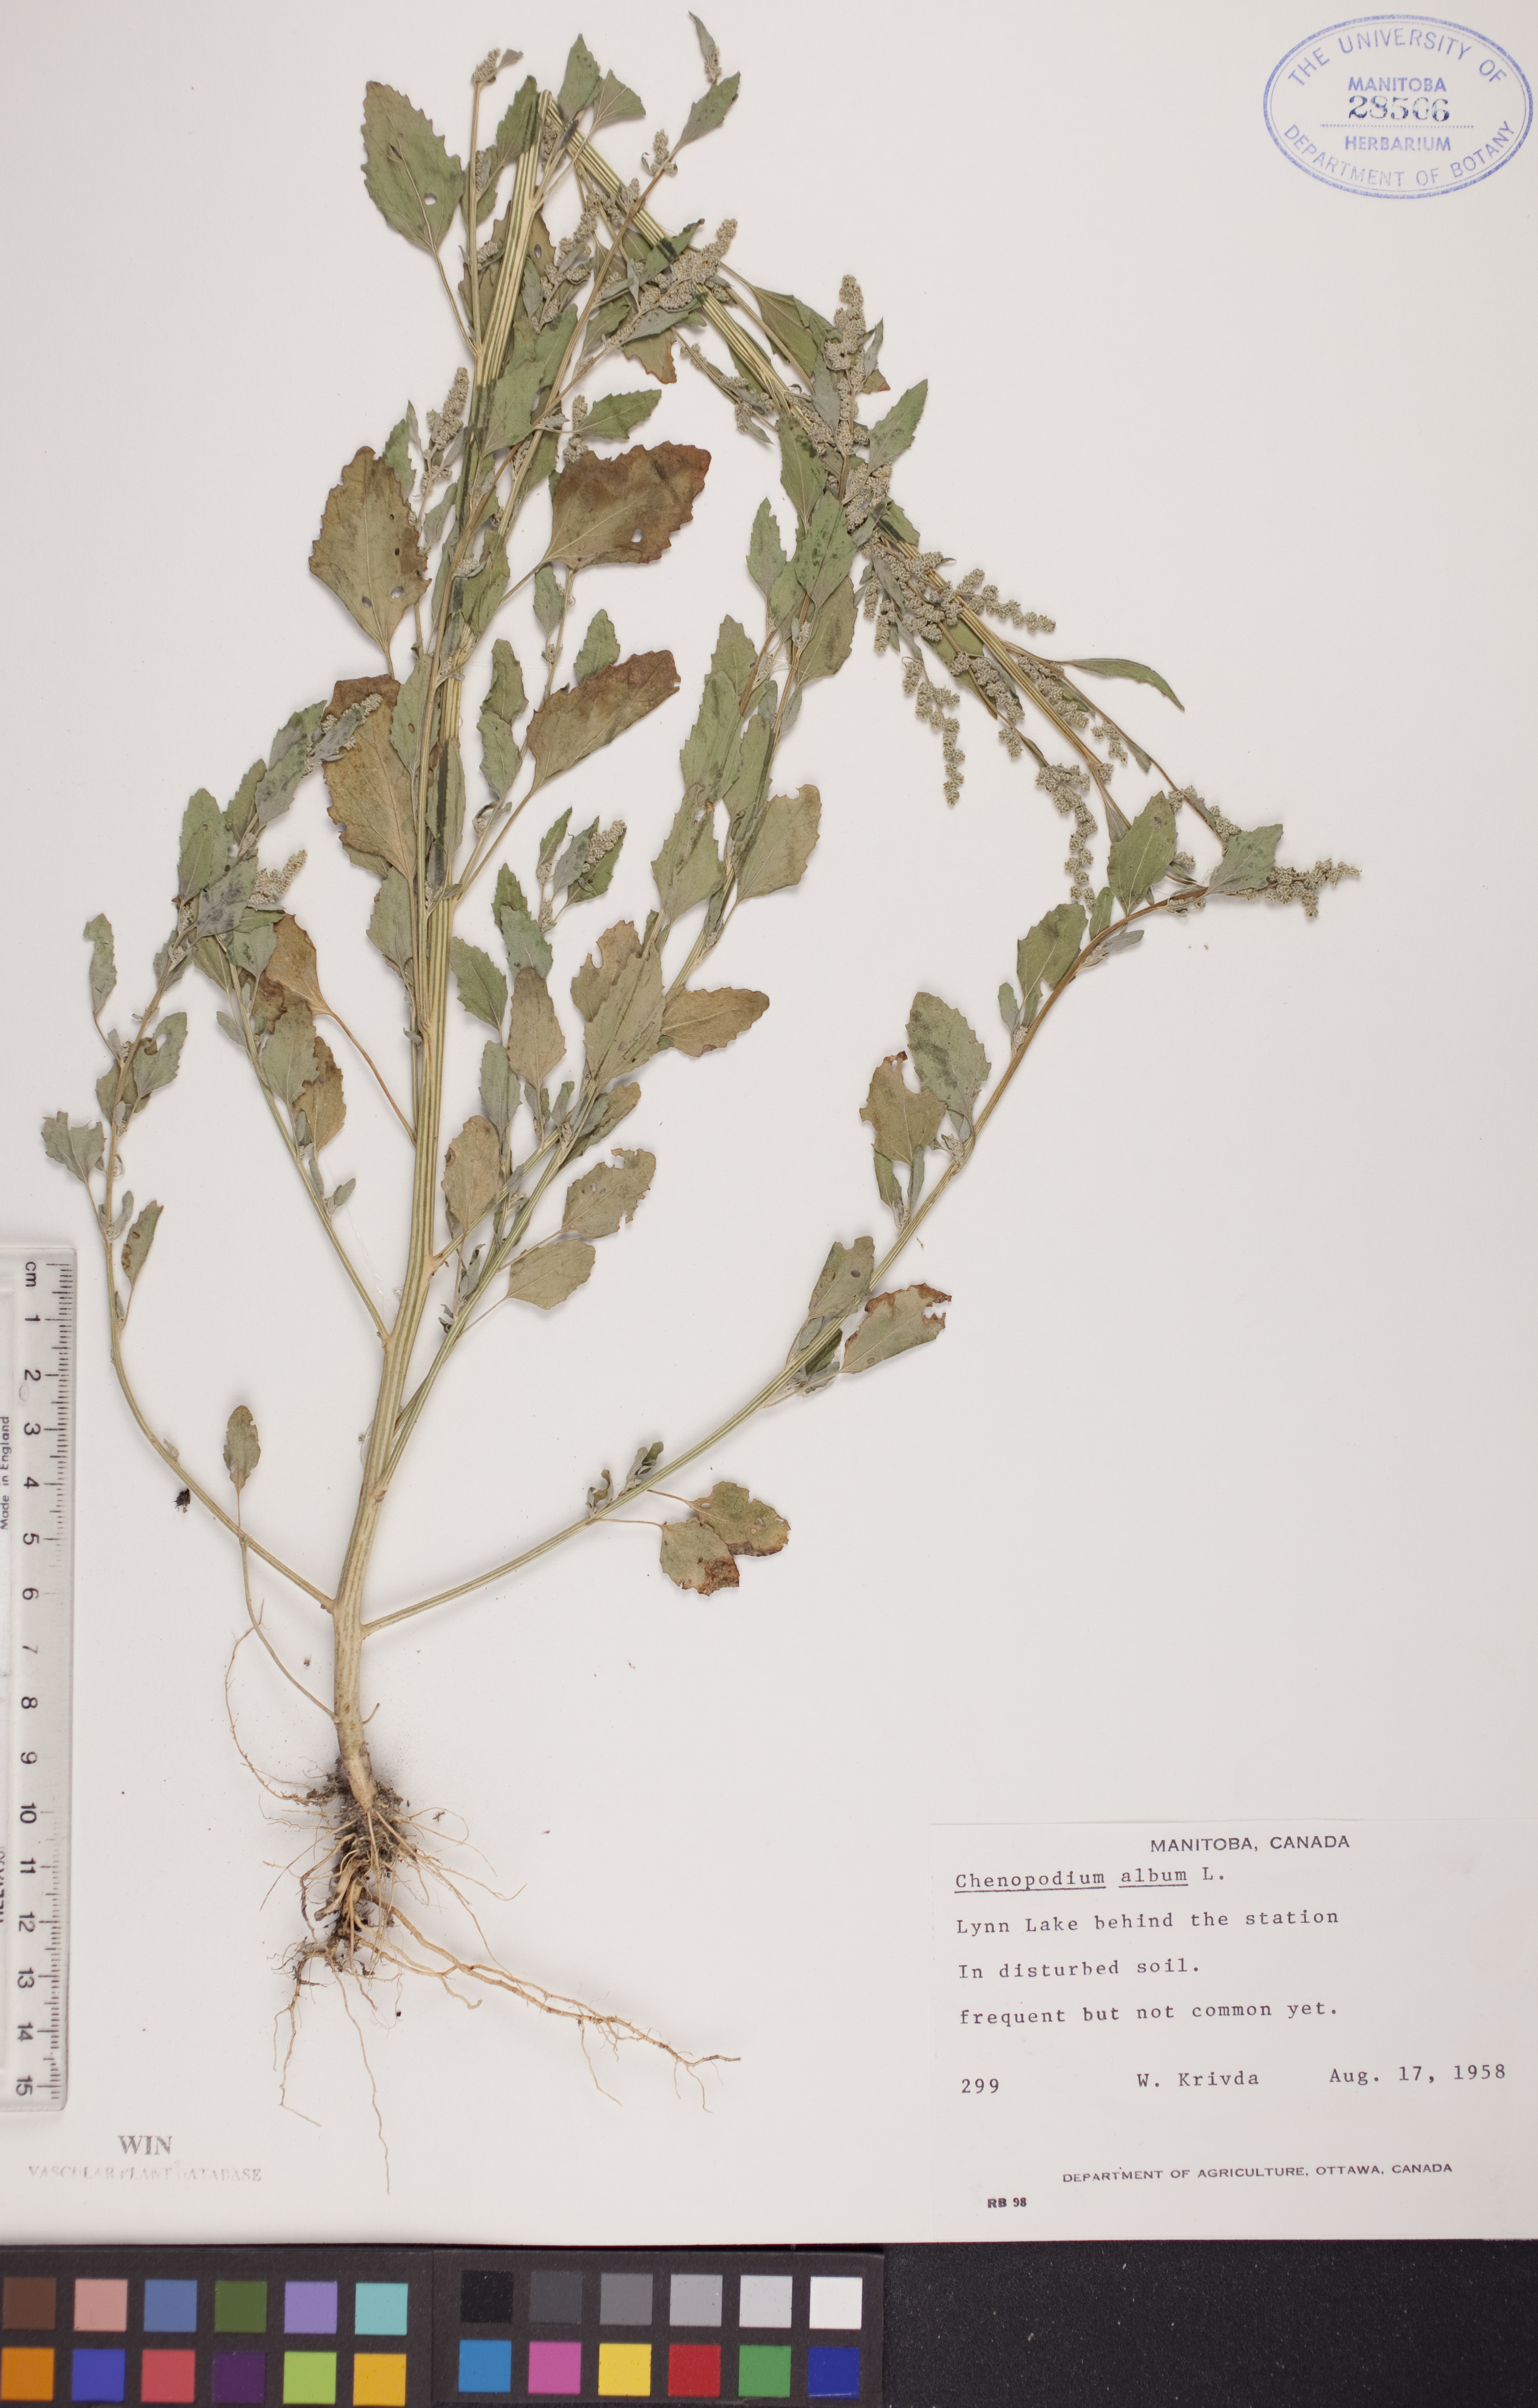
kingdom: Plantae
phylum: Tracheophyta
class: Magnoliopsida
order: Caryophyllales
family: Amaranthaceae
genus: Chenopodium
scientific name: Chenopodium album
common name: Fat-hen
